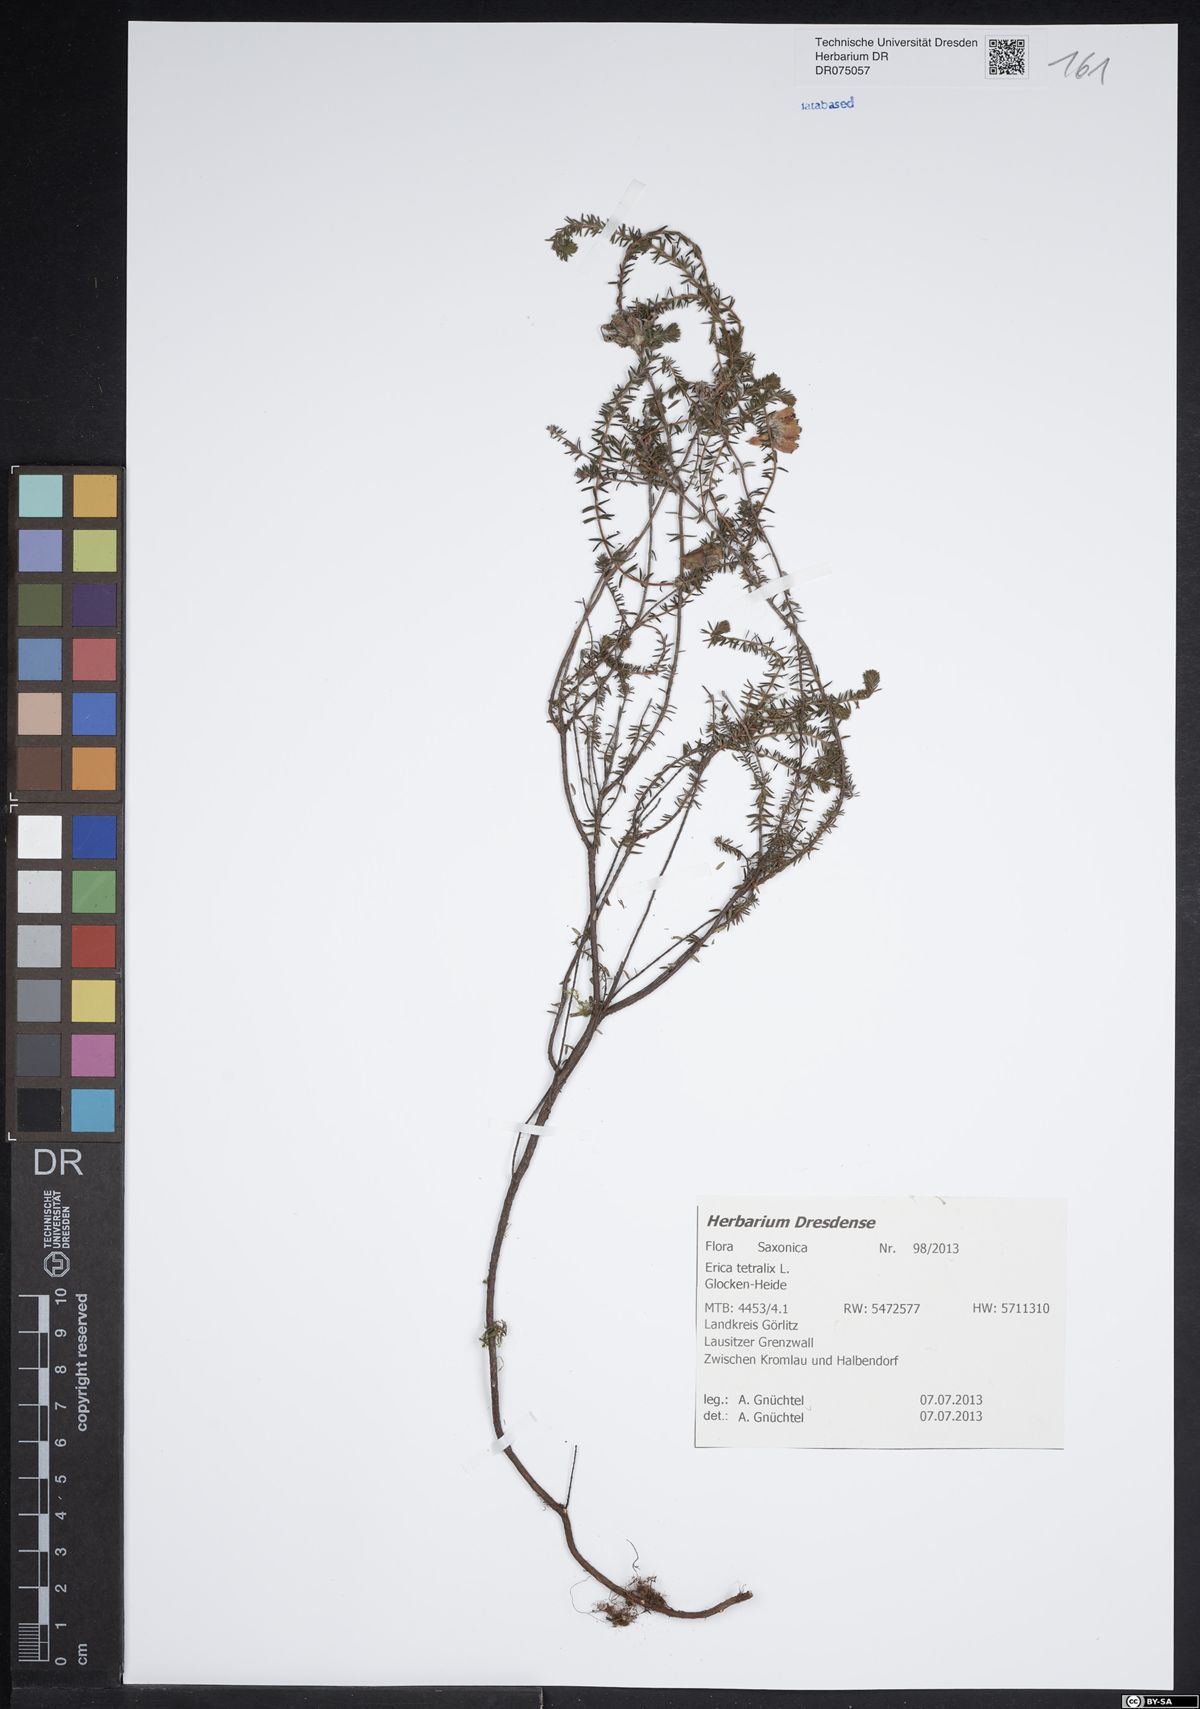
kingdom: Plantae
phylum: Tracheophyta
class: Magnoliopsida
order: Ericales
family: Ericaceae
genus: Erica
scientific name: Erica tetralix
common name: Cross-leaved heath
